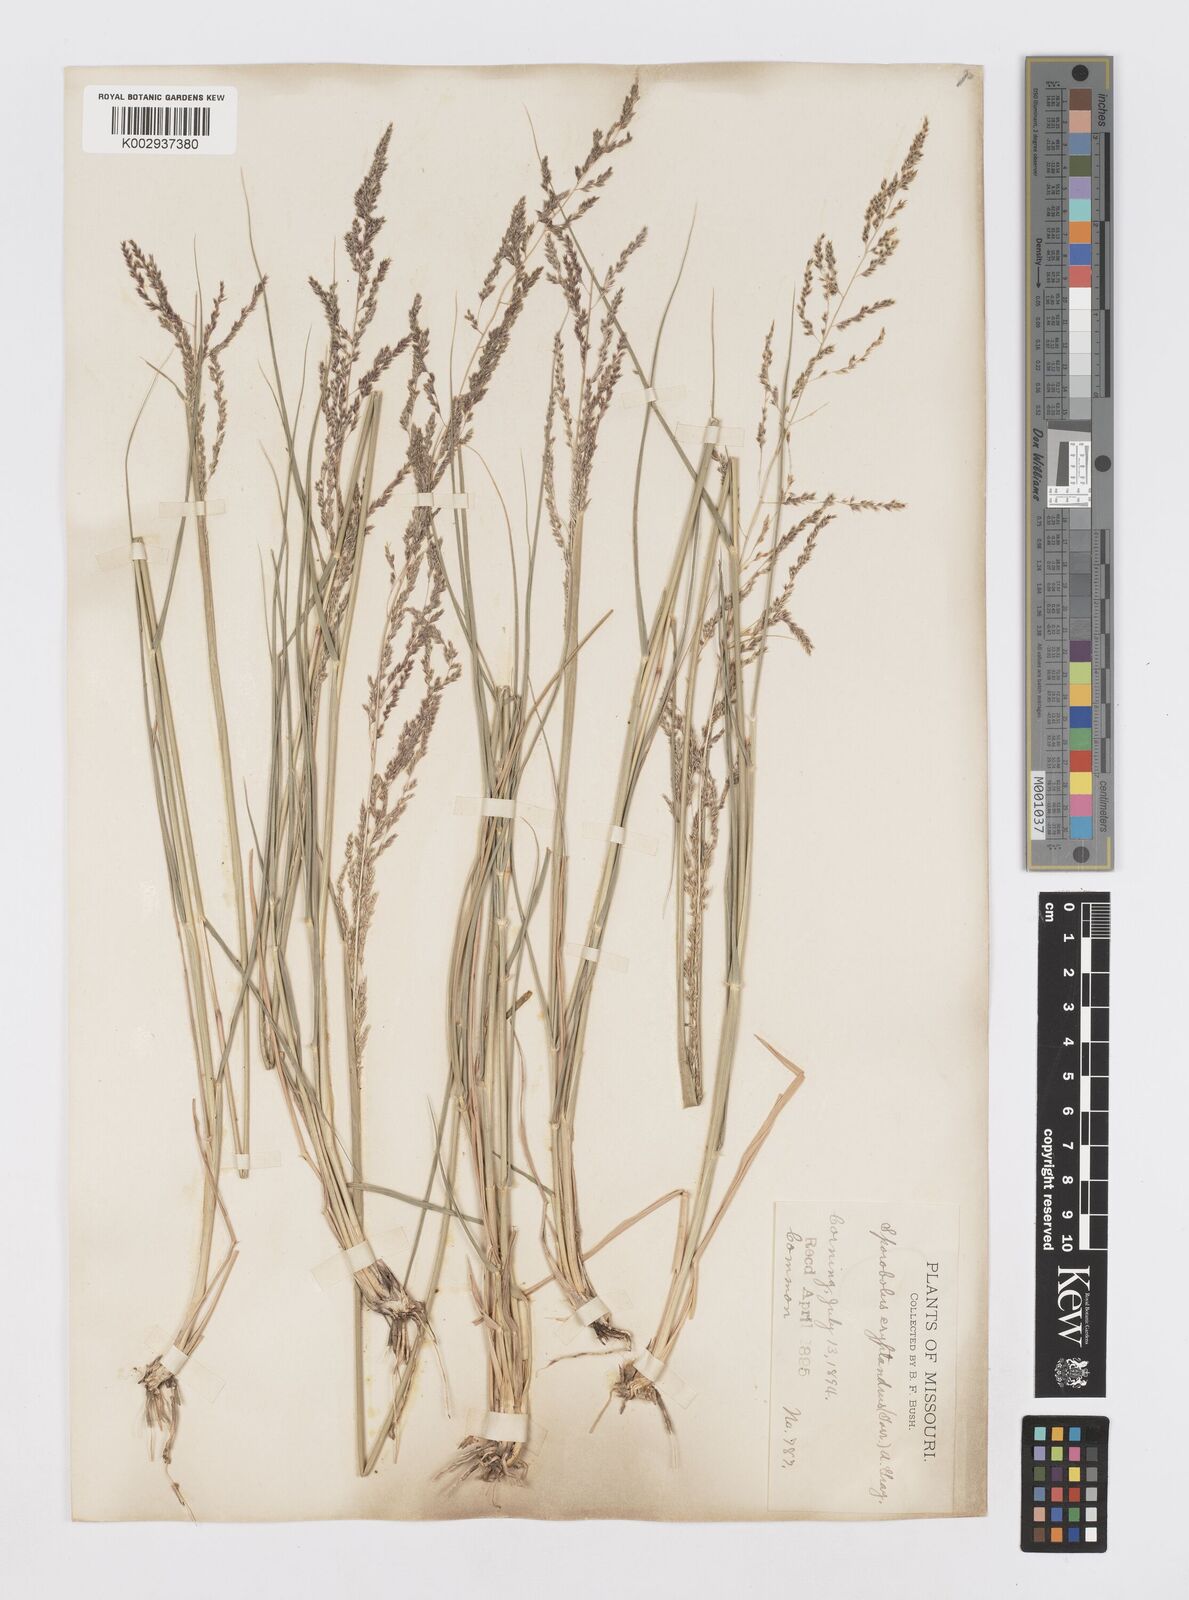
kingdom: Plantae
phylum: Tracheophyta
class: Liliopsida
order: Poales
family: Poaceae
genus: Sporobolus
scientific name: Sporobolus cryptandrus
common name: Sand dropseed
